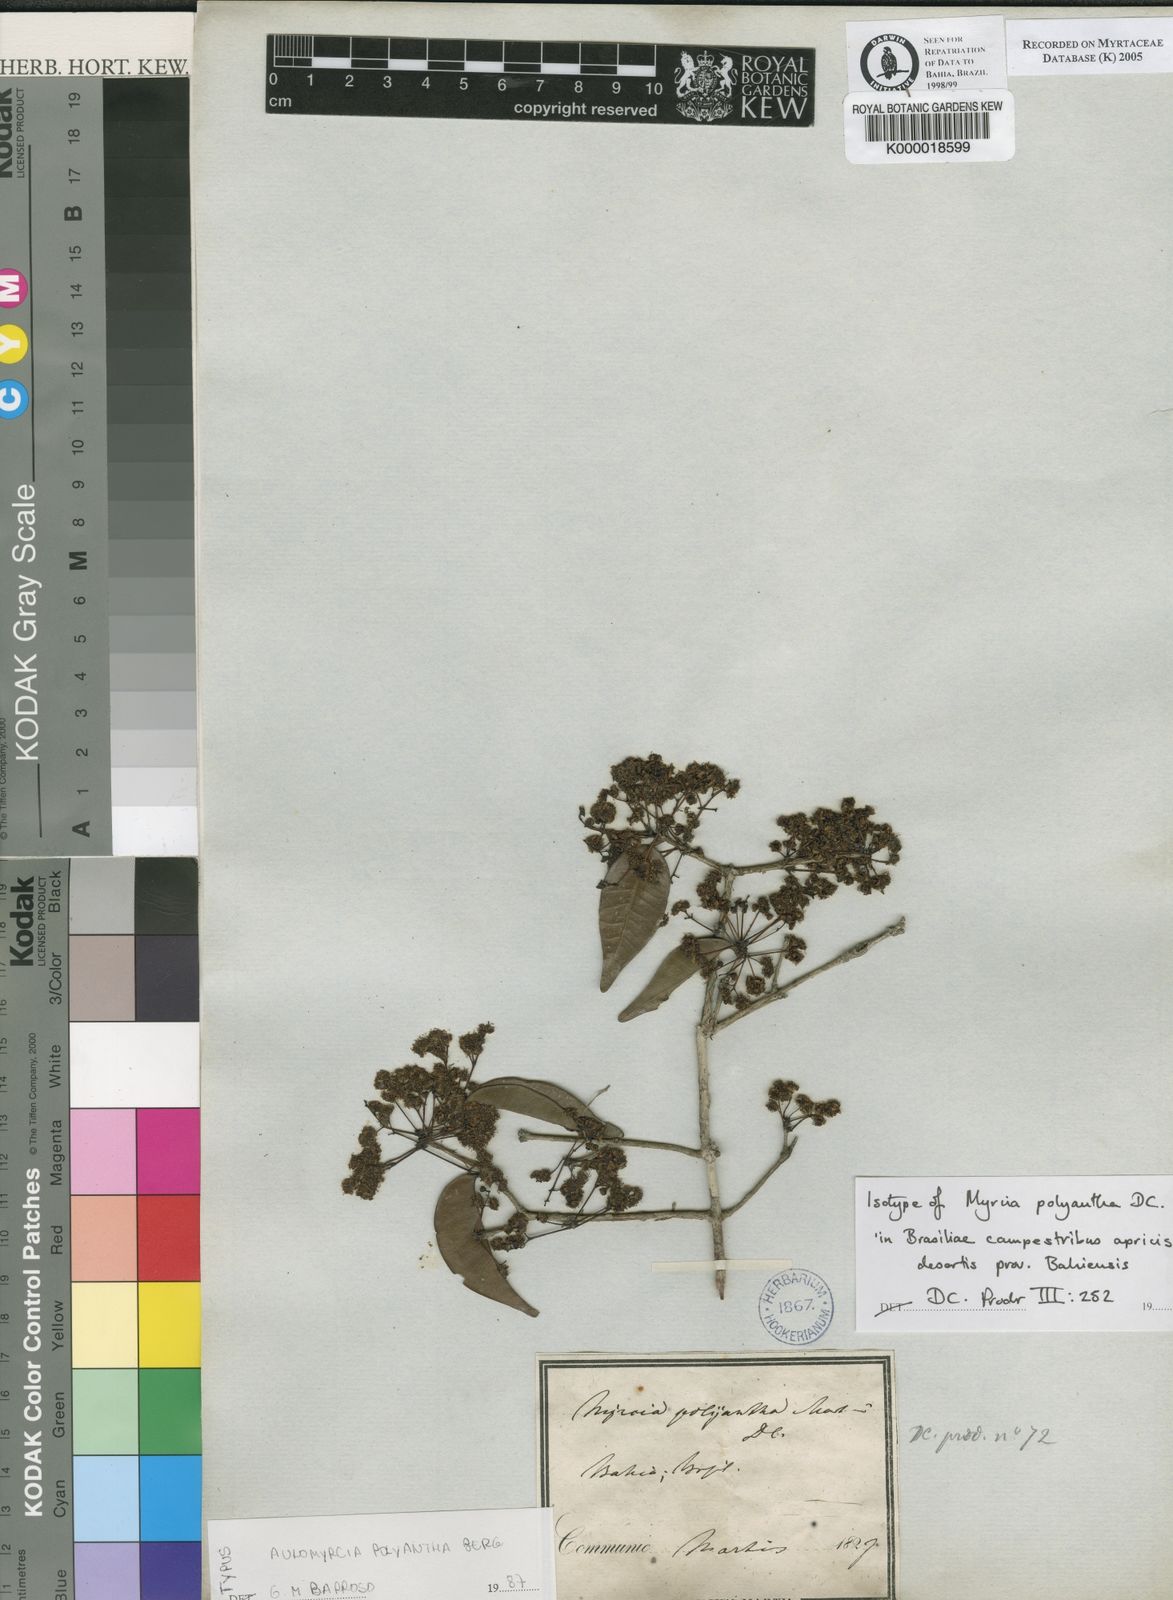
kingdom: Plantae
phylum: Tracheophyta
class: Magnoliopsida
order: Myrtales
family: Myrtaceae
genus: Myrcia
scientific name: Myrcia neopolyantha
